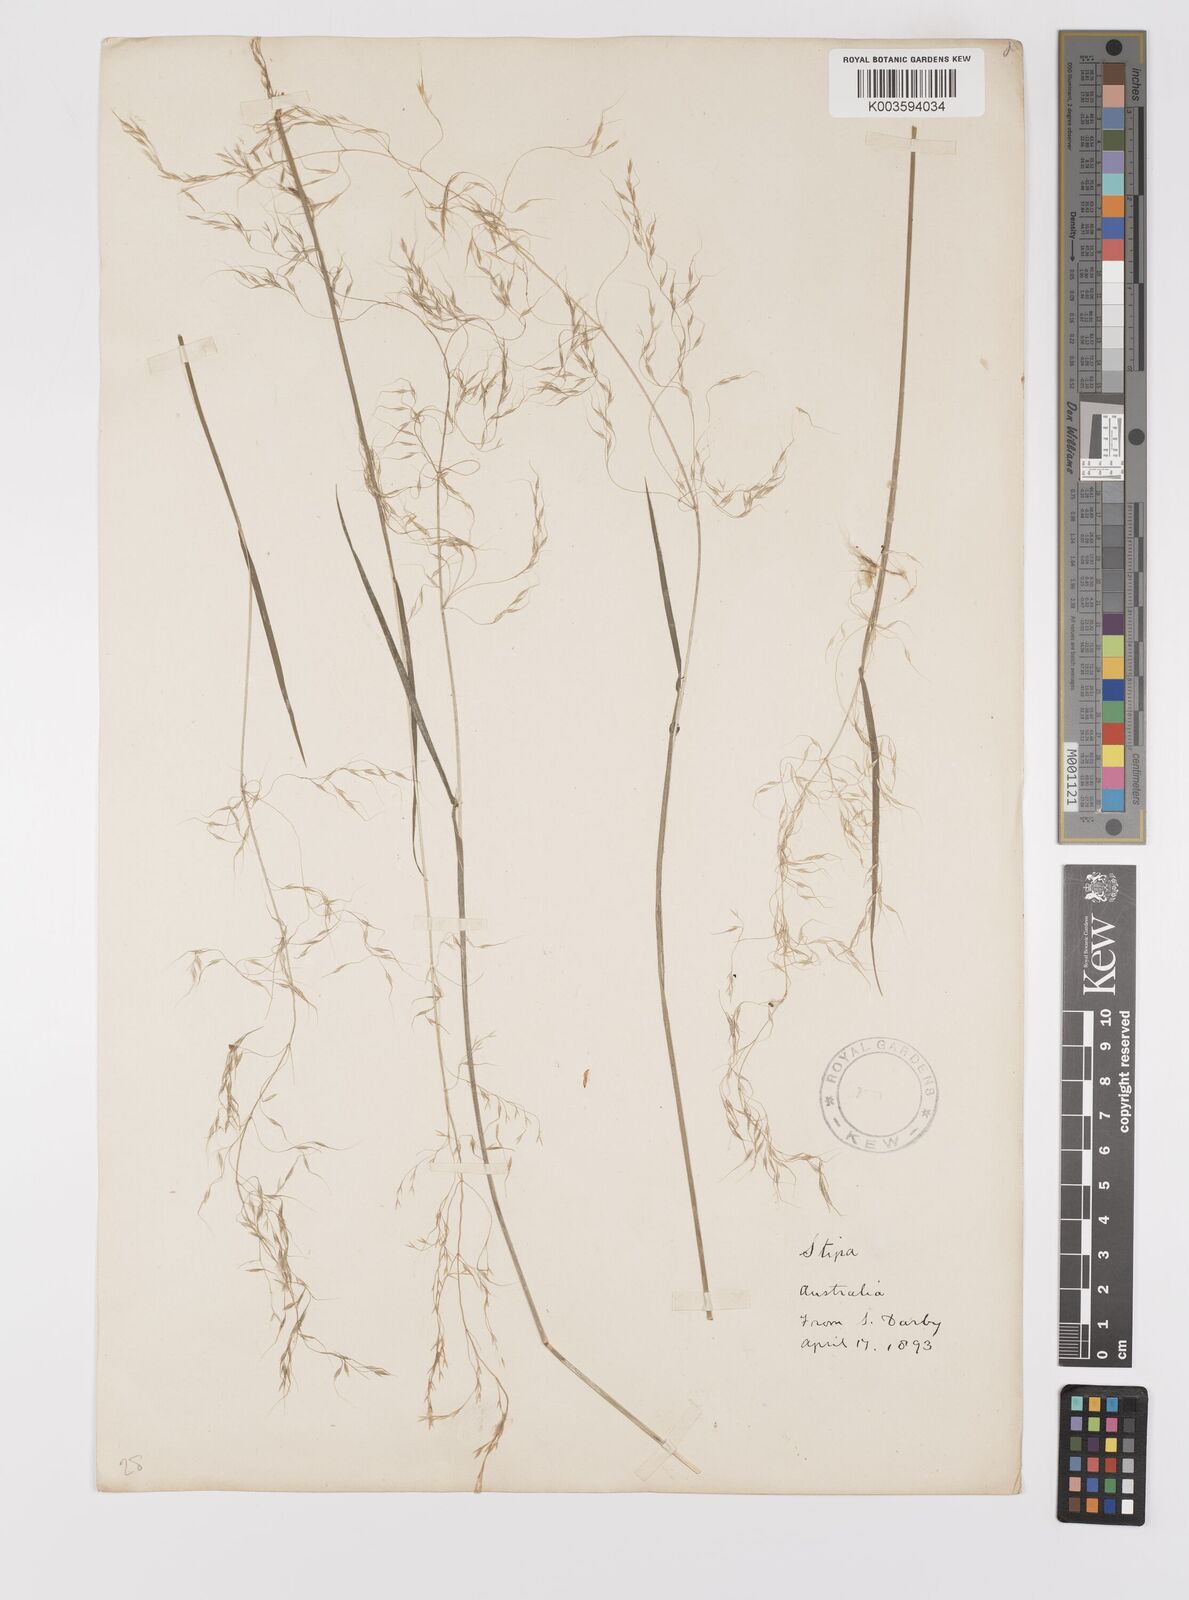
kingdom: Plantae
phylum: Tracheophyta
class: Liliopsida
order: Poales
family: Poaceae
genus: Dichelachne
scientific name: Dichelachne rara
